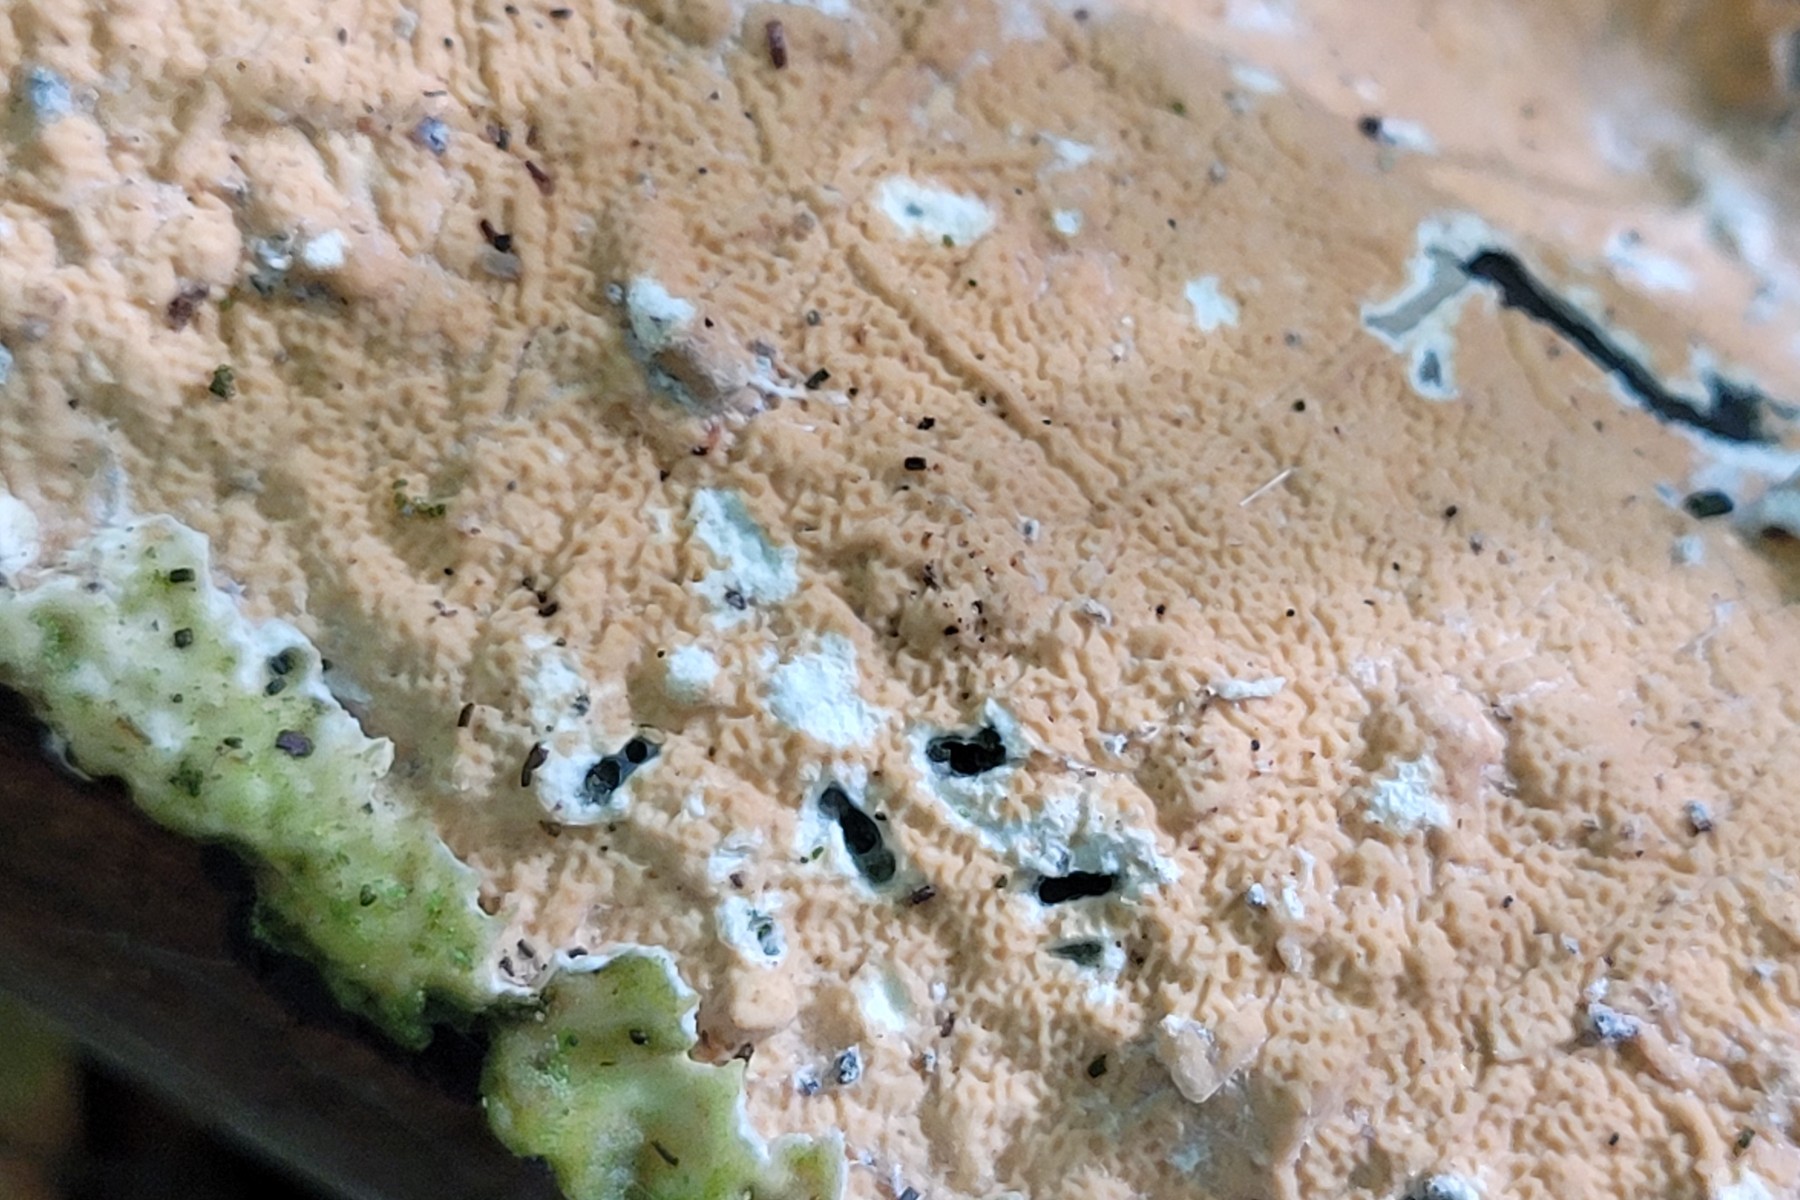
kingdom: Fungi
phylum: Basidiomycota
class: Agaricomycetes
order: Polyporales
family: Irpicaceae
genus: Byssomerulius
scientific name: Byssomerulius corium
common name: læder-åresvamp
